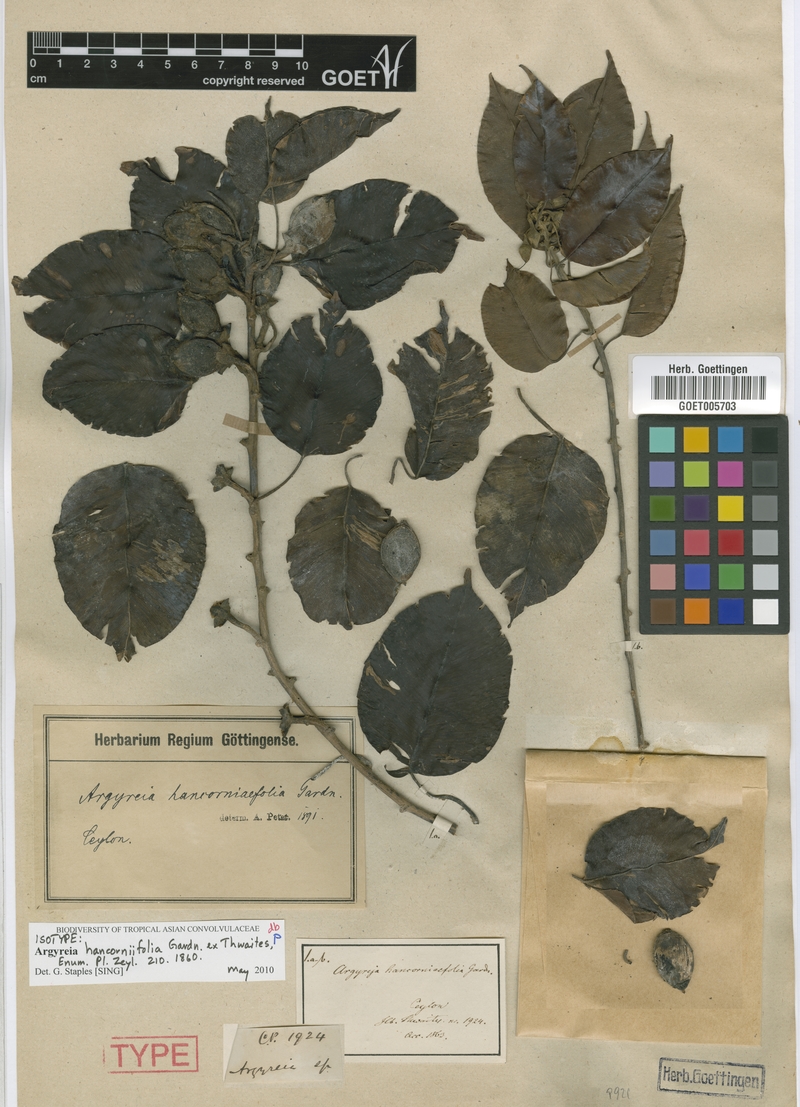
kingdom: Plantae
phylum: Tracheophyta
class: Magnoliopsida
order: Solanales
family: Convolvulaceae
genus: Argyreia
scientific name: Argyreia hancorniifolia
